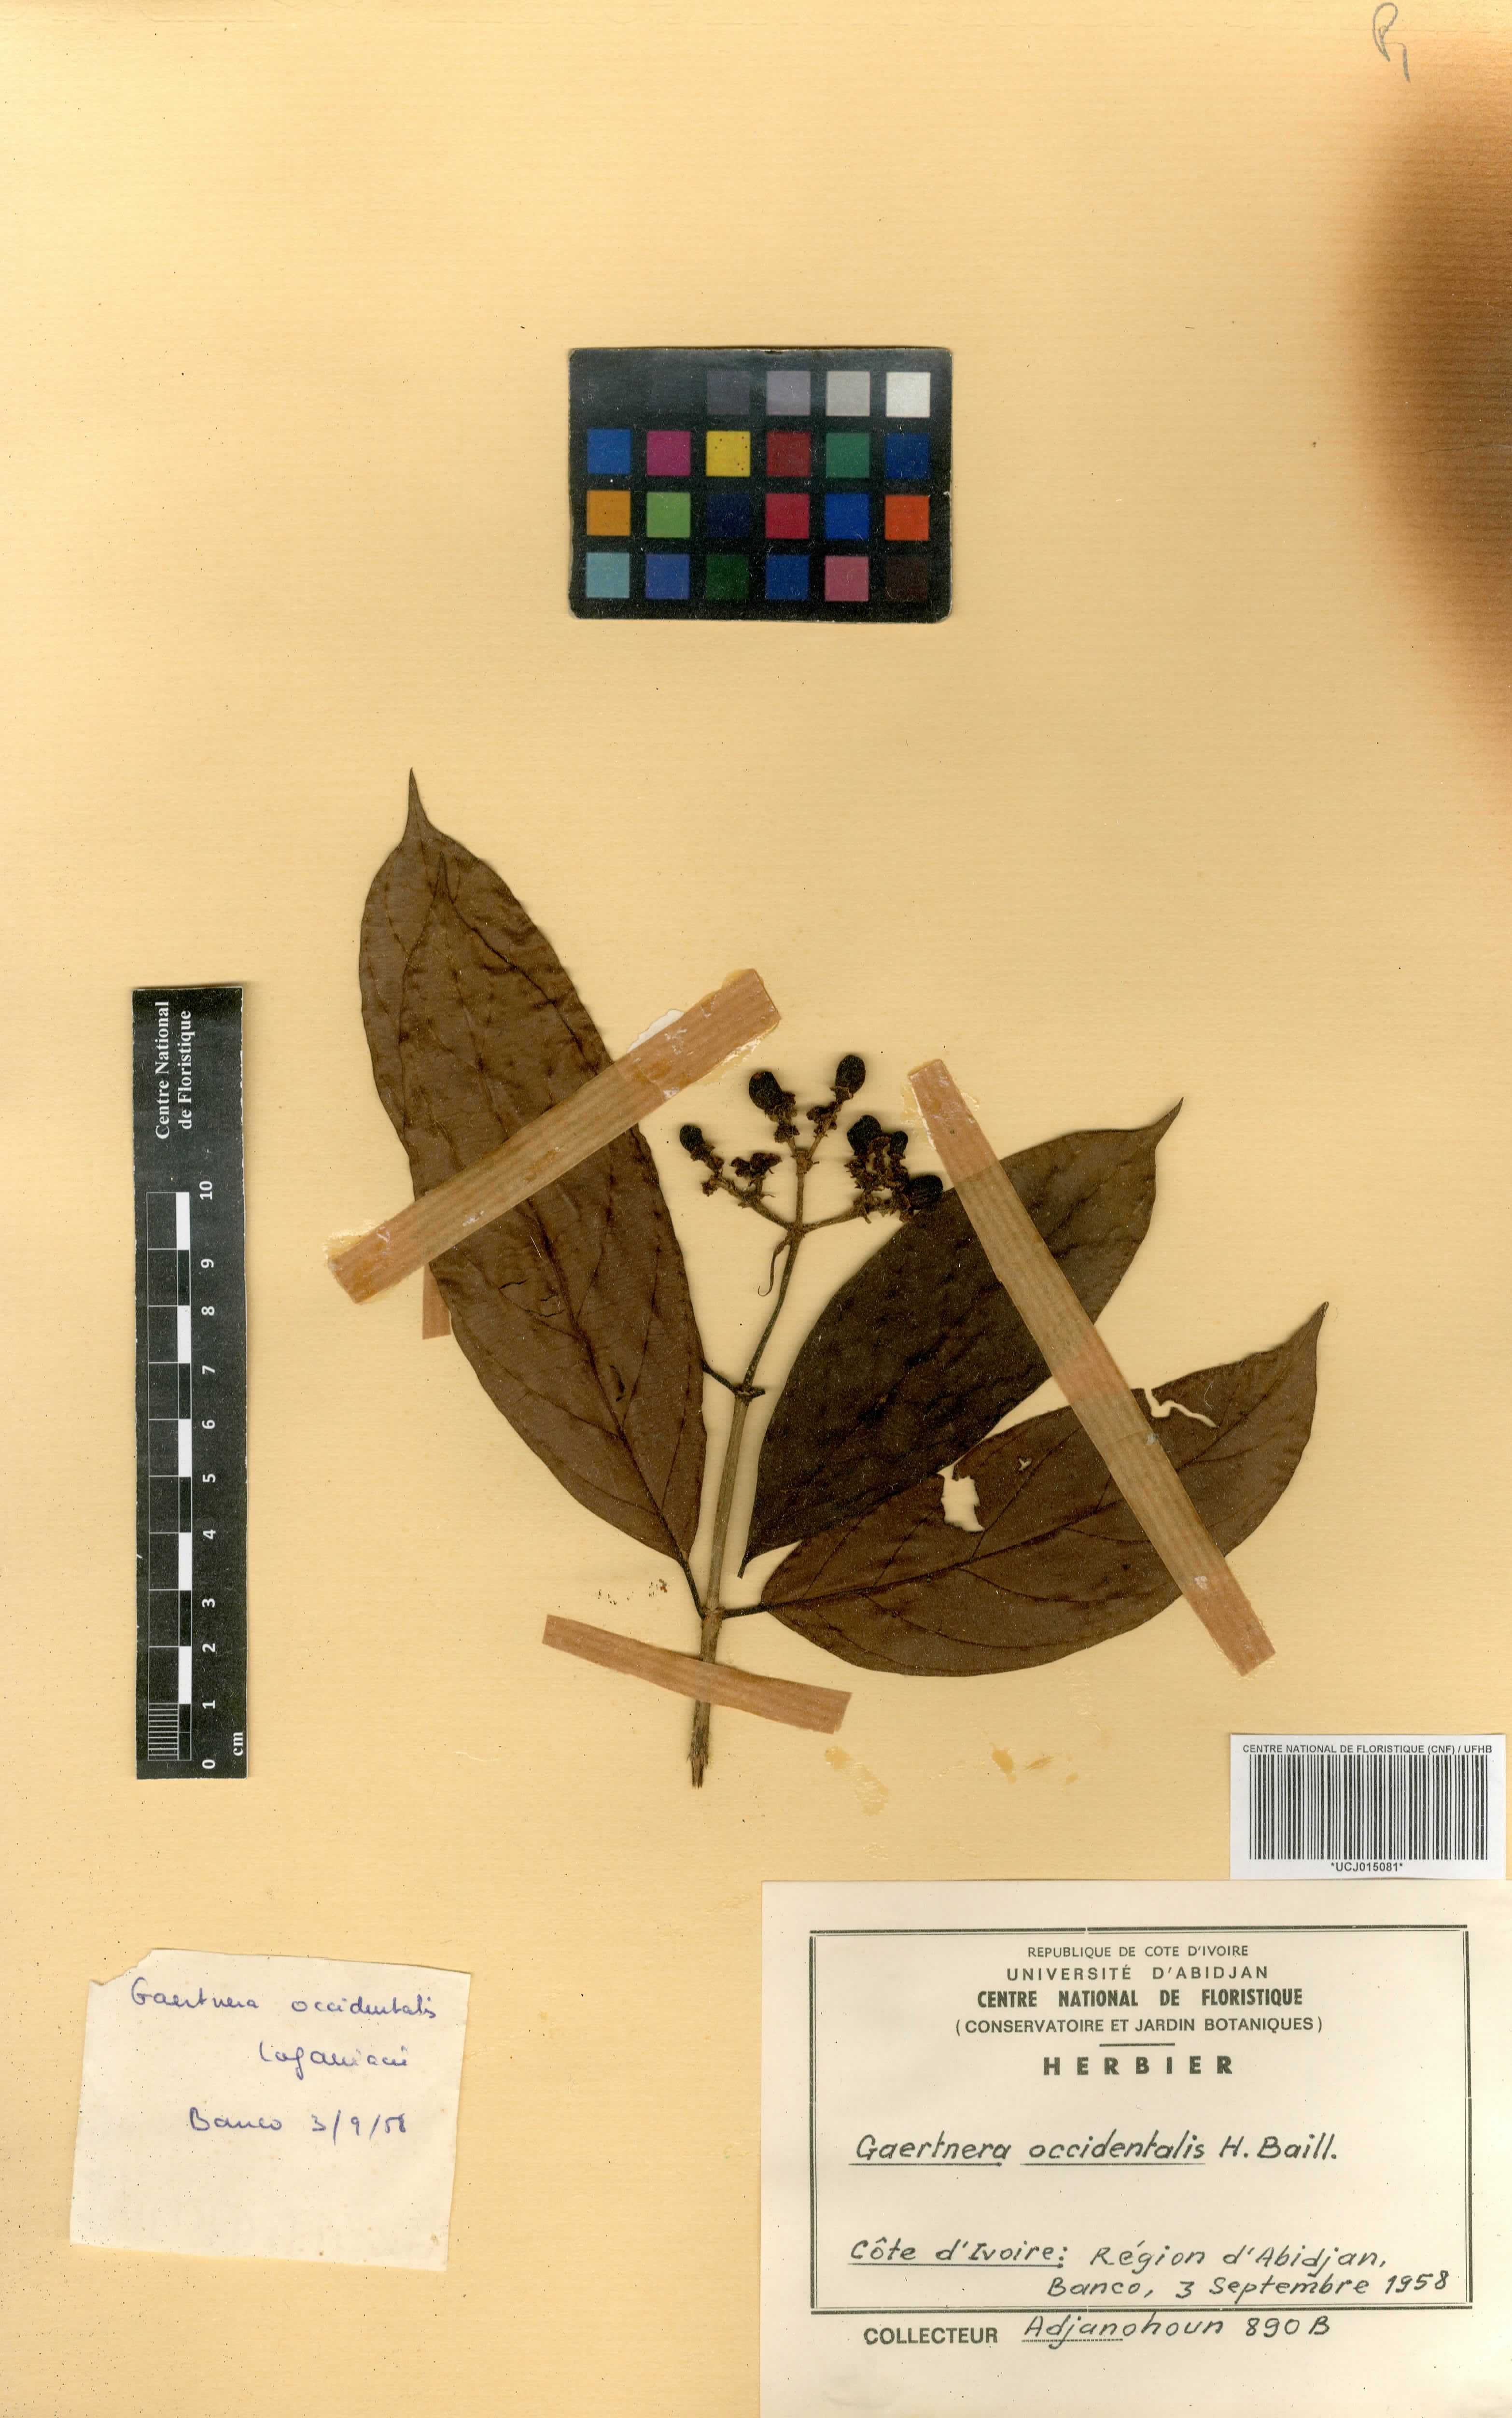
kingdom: Plantae
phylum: Tracheophyta
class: Magnoliopsida
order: Gentianales
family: Rubiaceae
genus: Gaertnera
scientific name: Gaertnera paniculata
